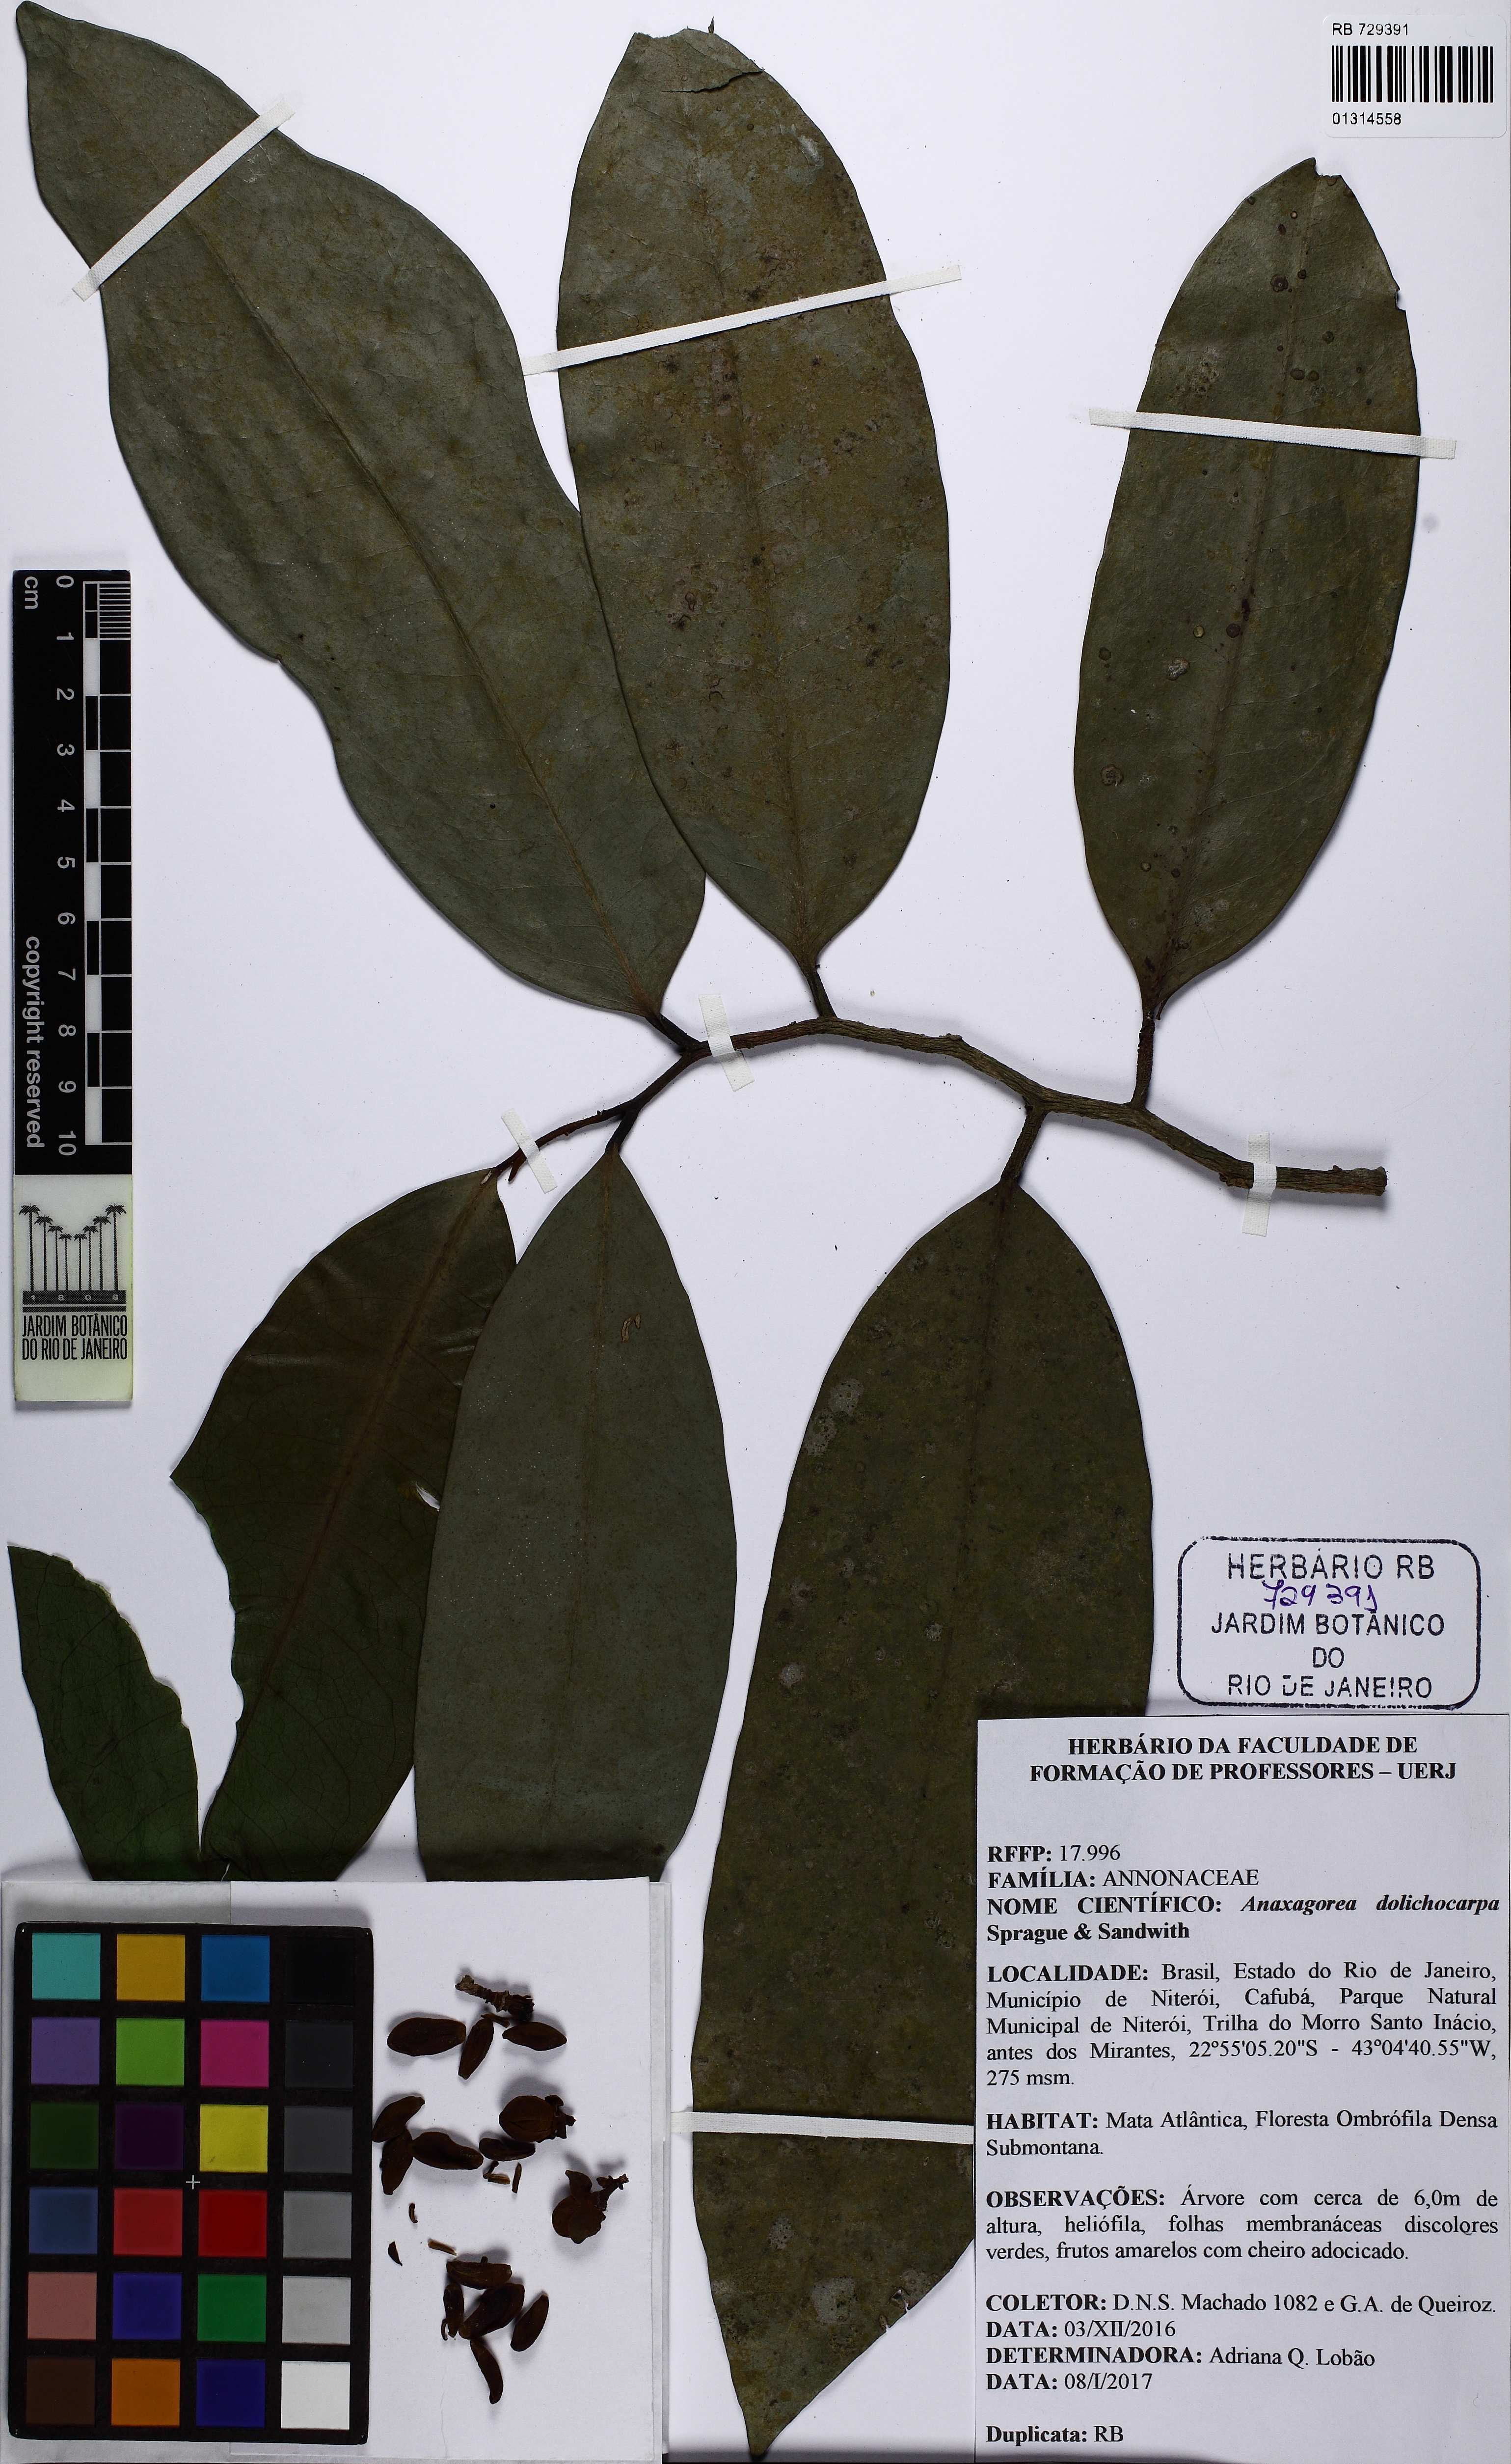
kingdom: Plantae
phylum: Tracheophyta
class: Magnoliopsida
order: Magnoliales
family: Annonaceae
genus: Anaxagorea
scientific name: Anaxagorea dolichocarpa
